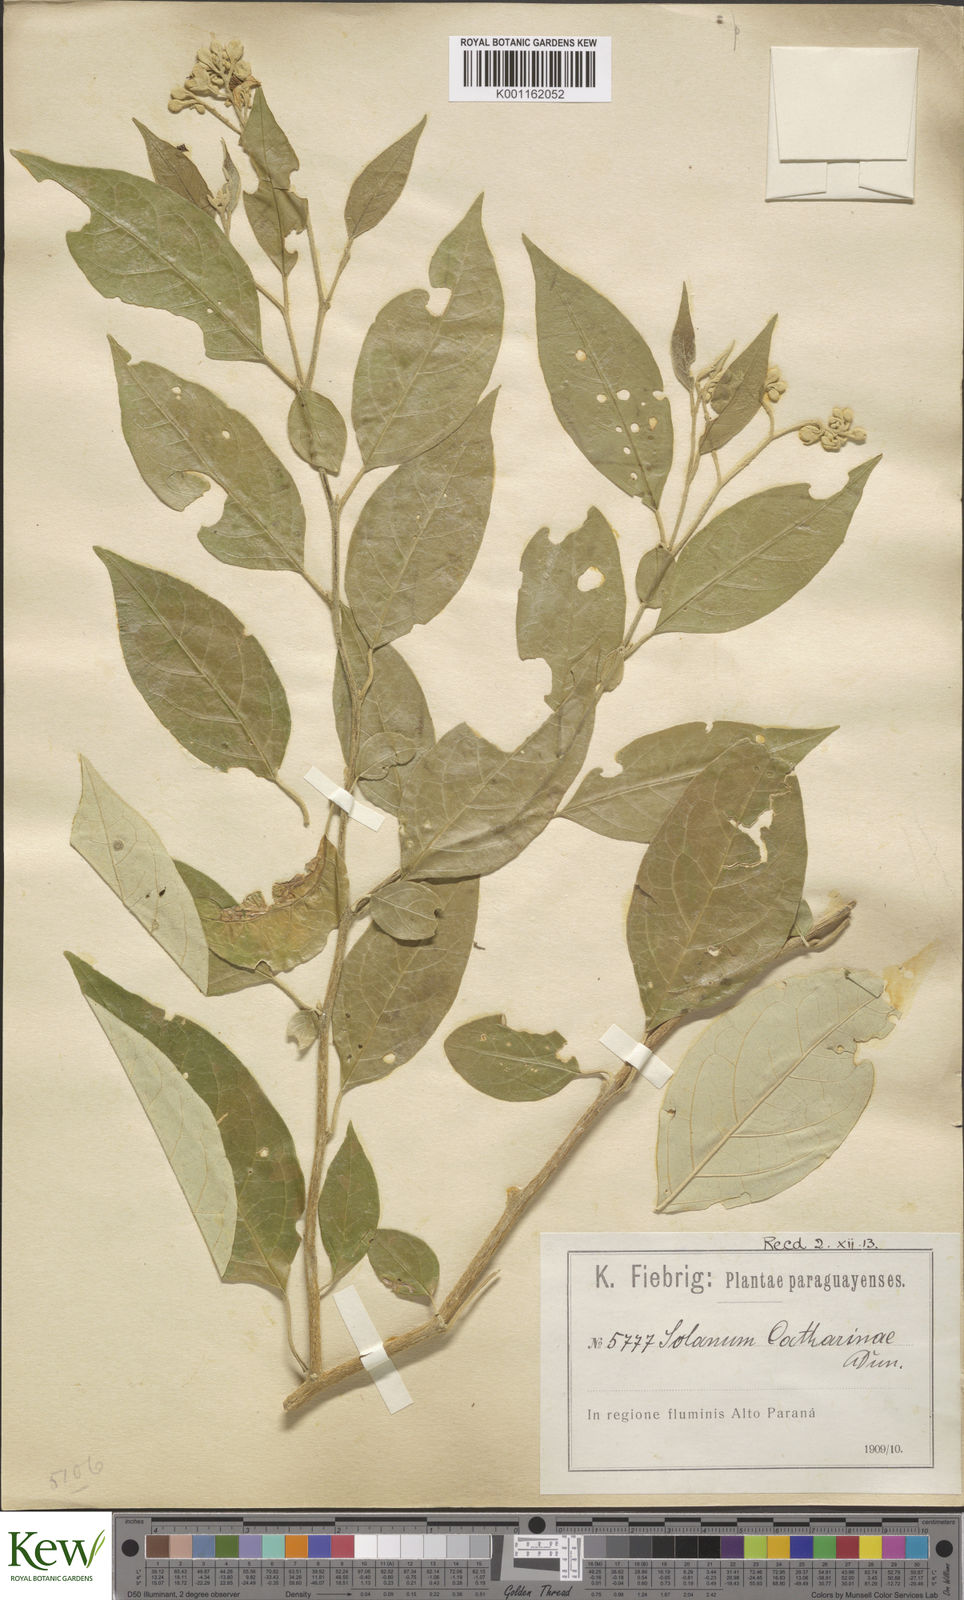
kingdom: Plantae
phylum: Tracheophyta
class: Magnoliopsida
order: Solanales
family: Solanaceae
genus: Solanum
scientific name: Solanum sanctae-catharinae
